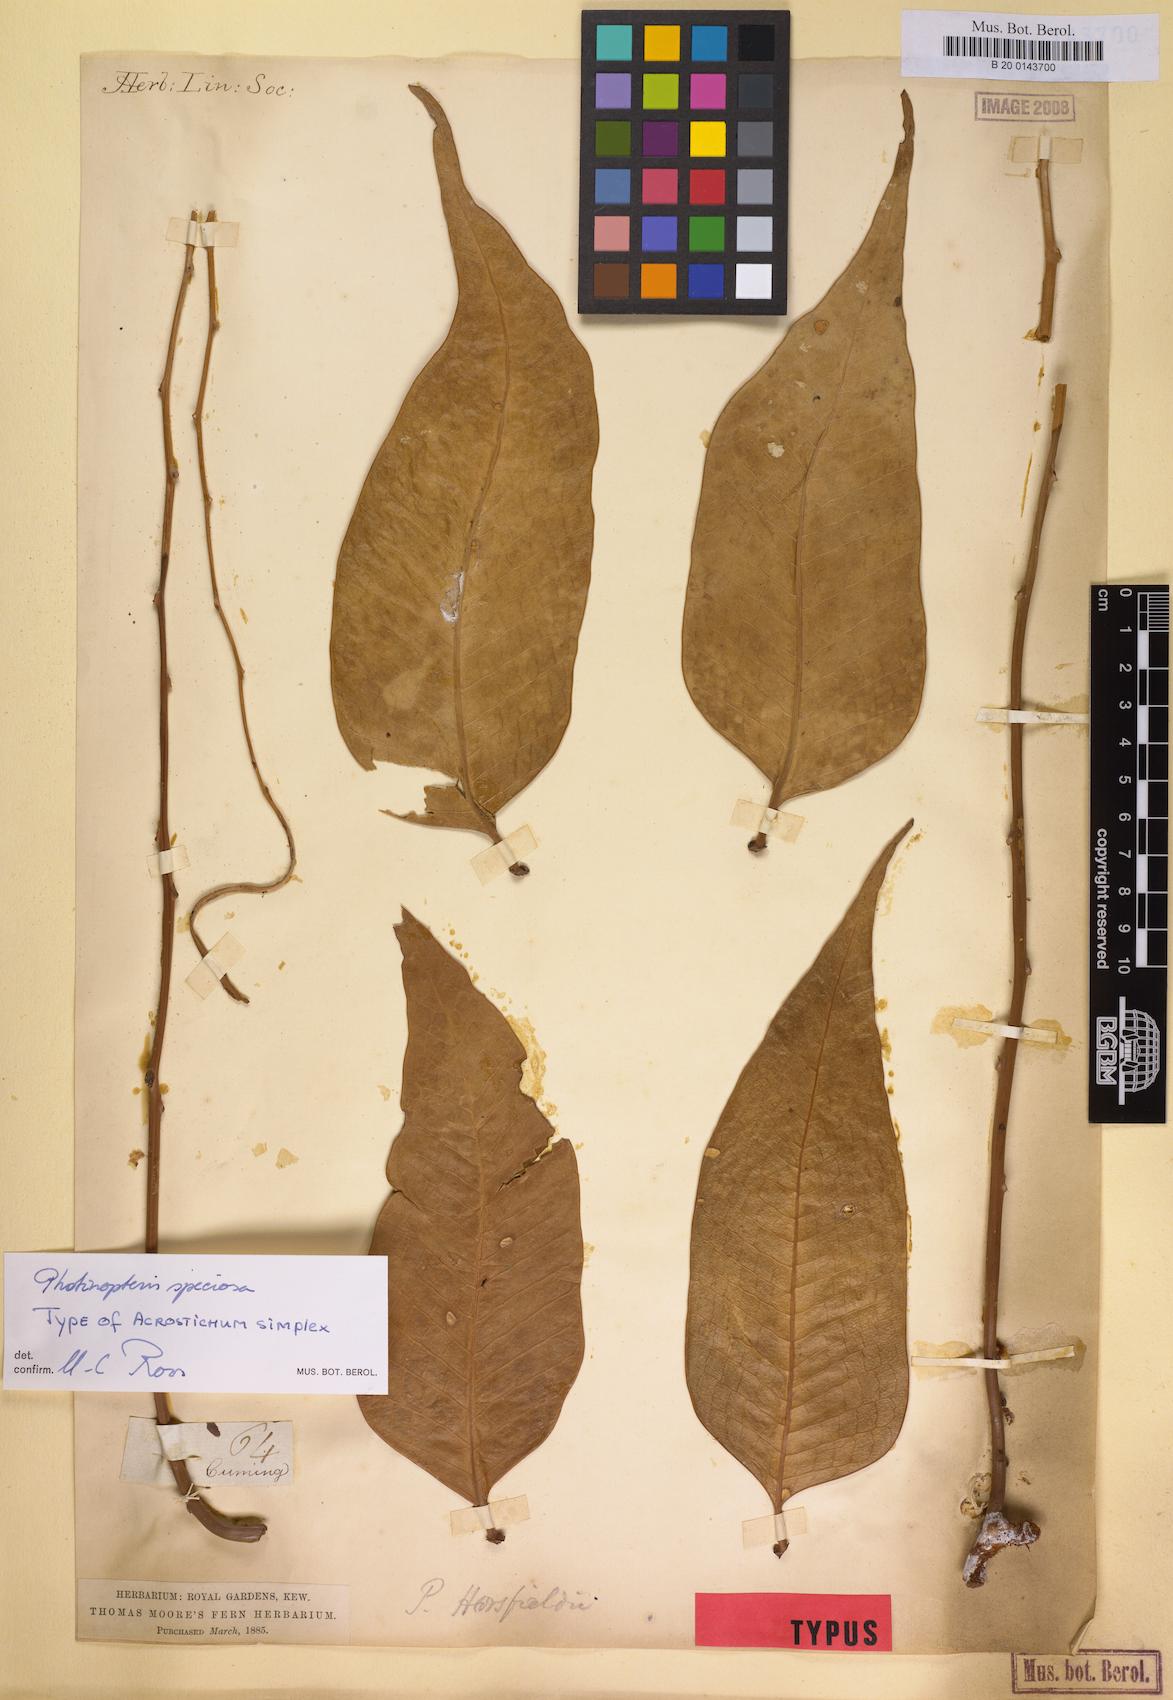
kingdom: Plantae
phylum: Tracheophyta
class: Polypodiopsida
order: Polypodiales
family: Polypodiaceae
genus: Drynaria
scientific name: Drynaria speciosa
